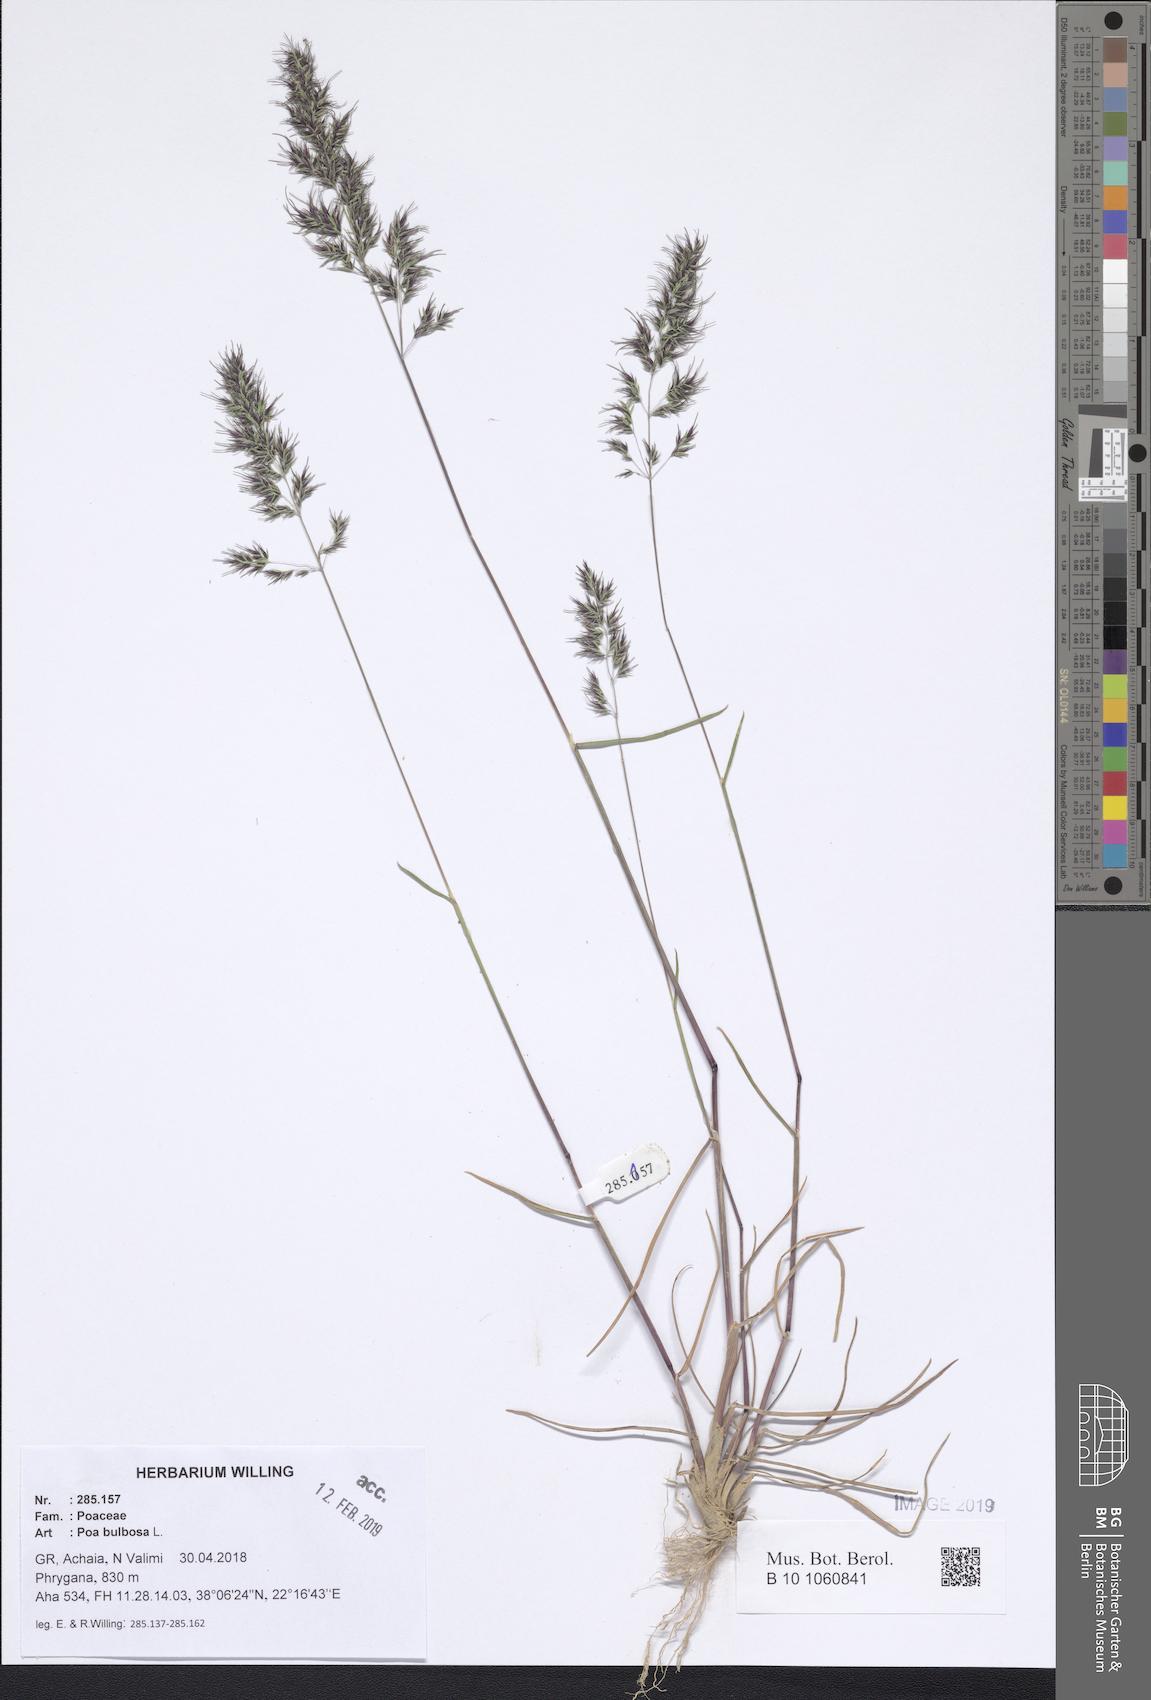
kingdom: Plantae
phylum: Tracheophyta
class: Liliopsida
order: Poales
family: Poaceae
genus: Poa
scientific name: Poa bulbosa
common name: Bulbous bluegrass
